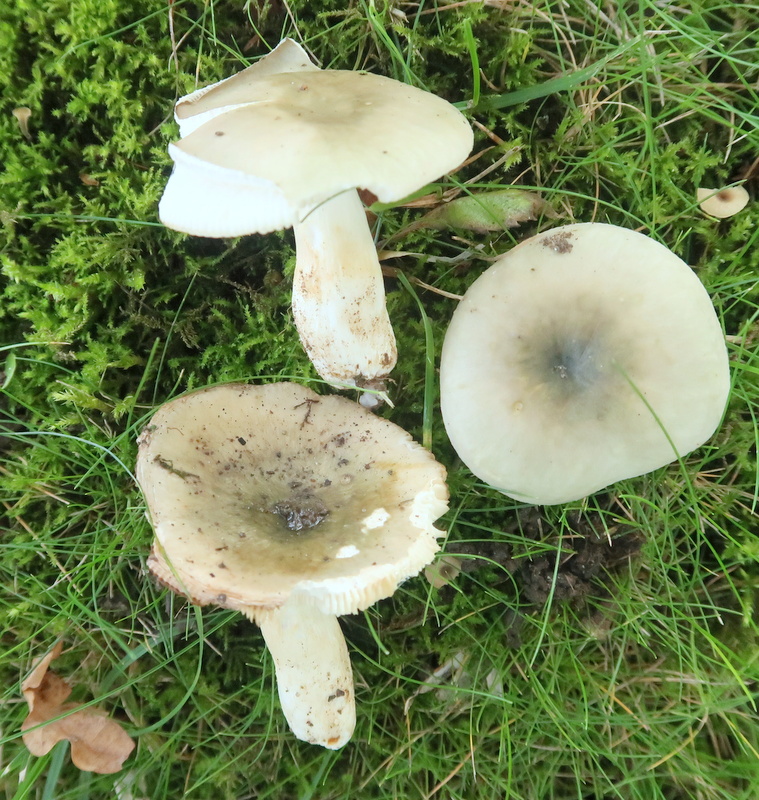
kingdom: Fungi
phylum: Basidiomycota
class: Agaricomycetes
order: Russulales
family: Russulaceae
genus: Russula
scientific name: Russula aeruginea
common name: græsgrøn skørhat
